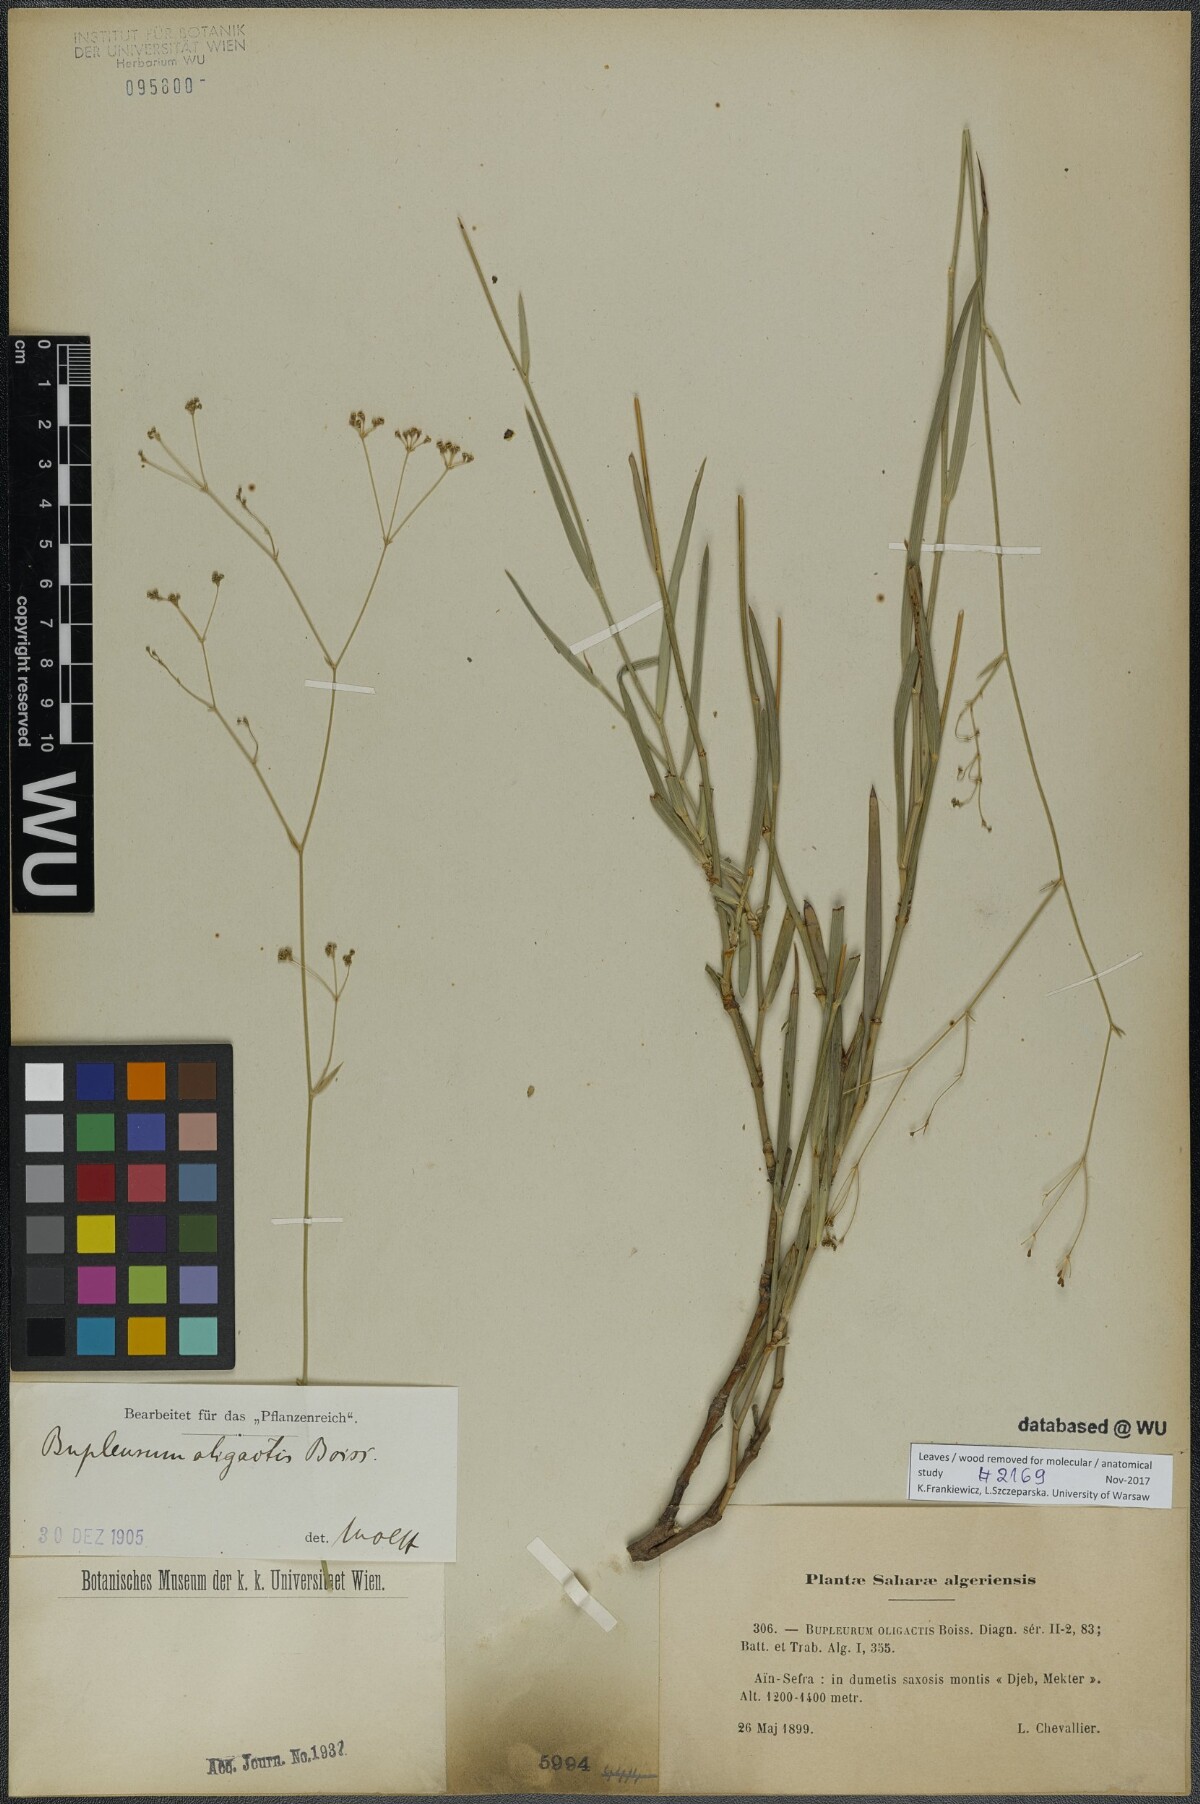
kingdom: Plantae
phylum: Tracheophyta
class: Magnoliopsida
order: Apiales
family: Apiaceae
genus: Bupleurum
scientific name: Bupleurum odontites
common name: Narrowleaf thorow wax
